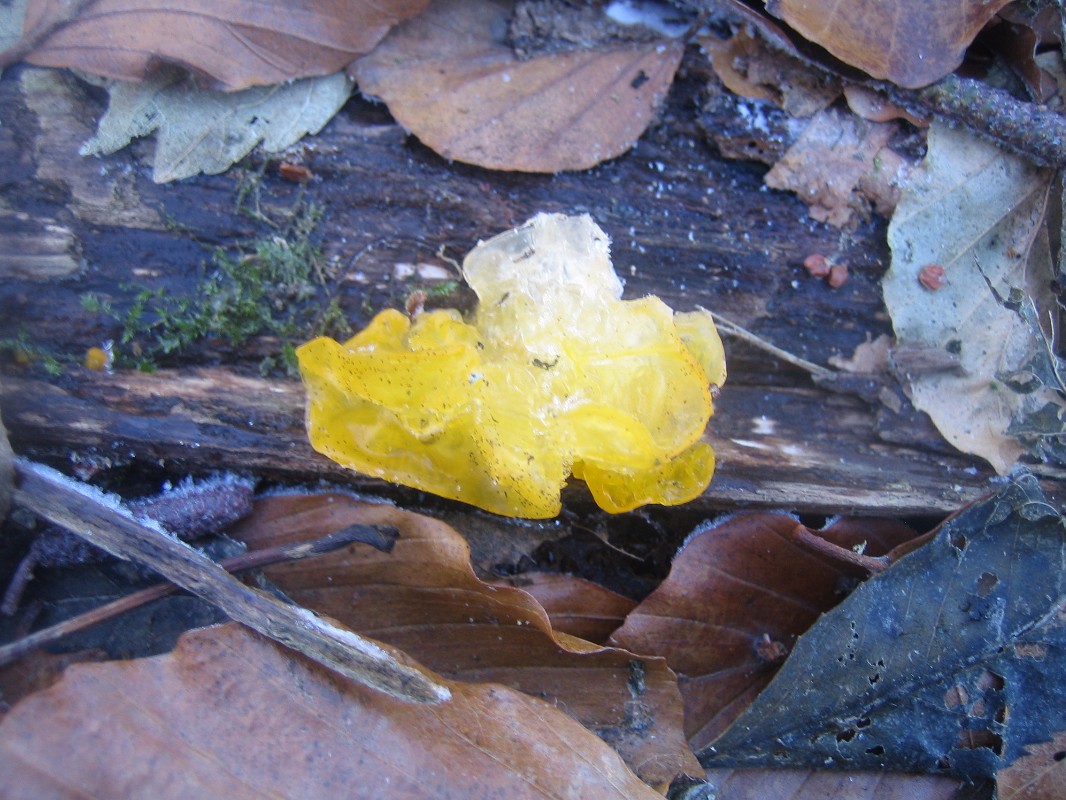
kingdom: Fungi
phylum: Basidiomycota
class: Tremellomycetes
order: Tremellales
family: Tremellaceae
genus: Tremella
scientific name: Tremella mesenterica
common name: gul bævresvamp
